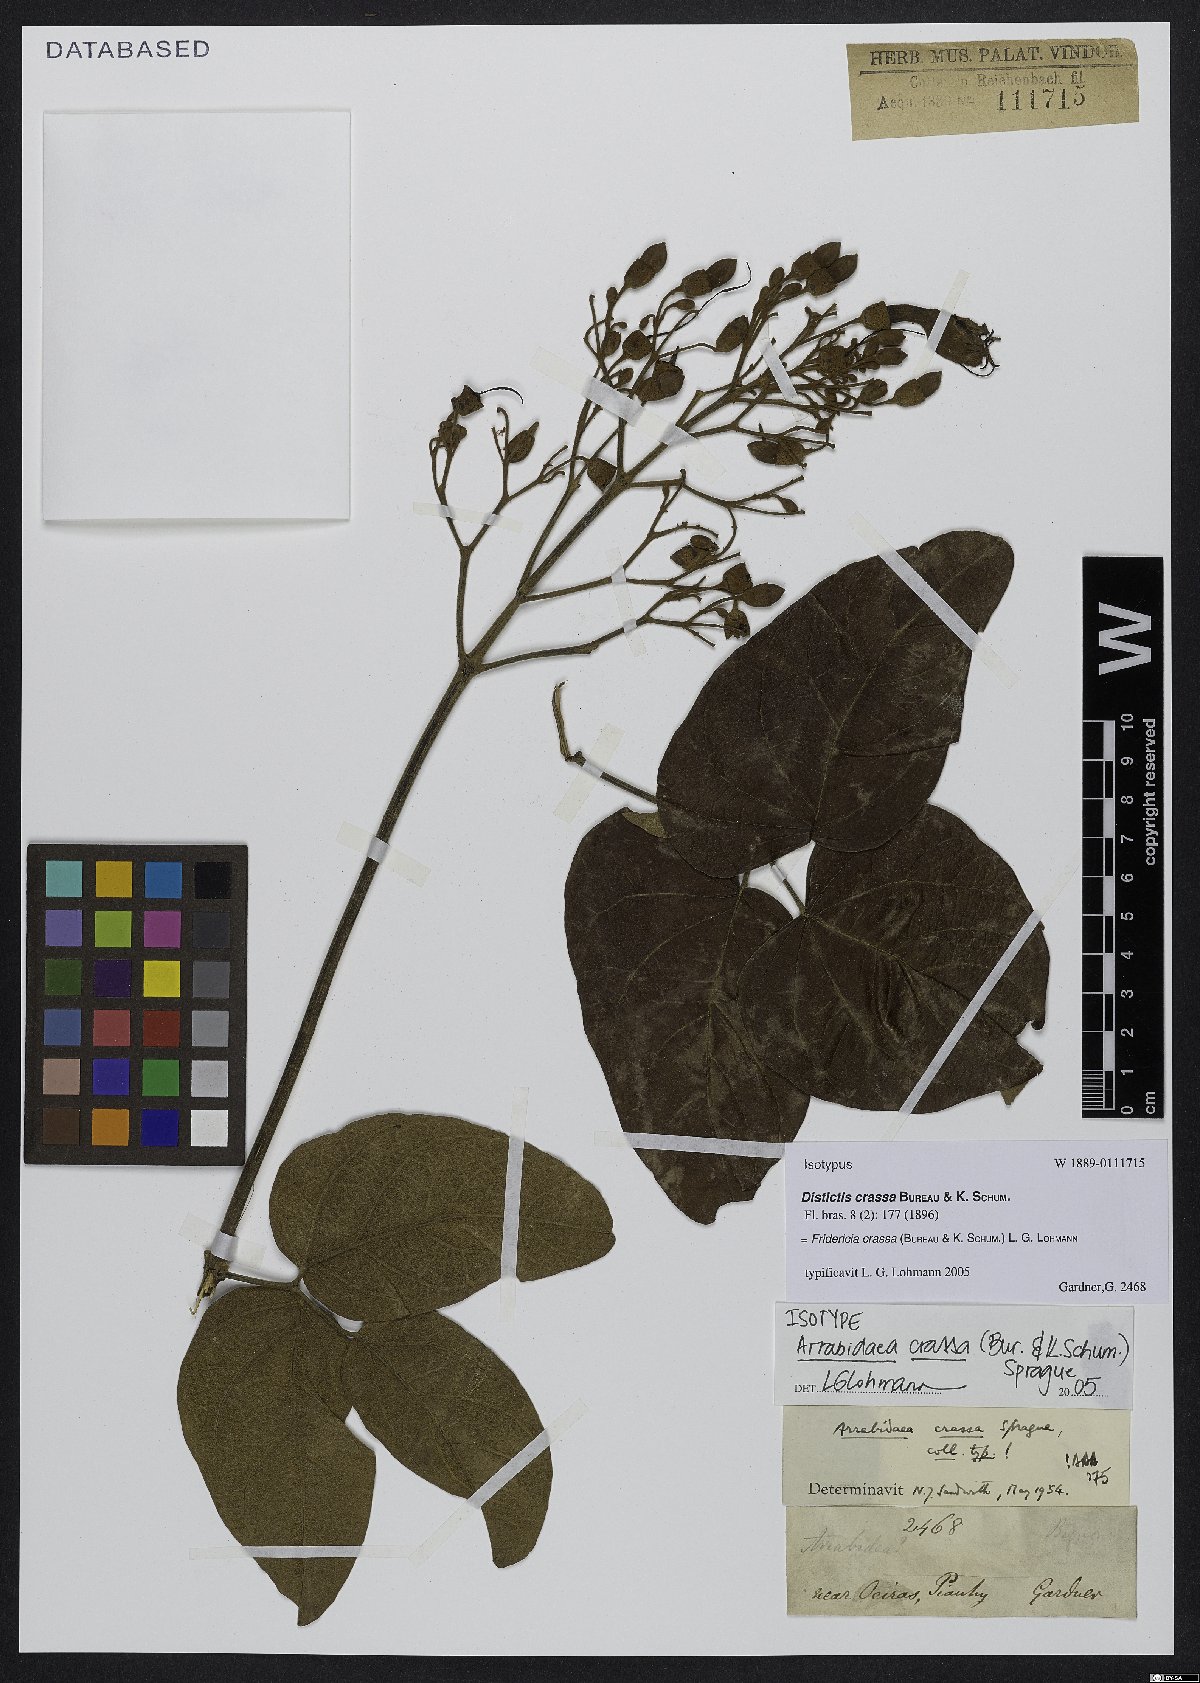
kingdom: Plantae
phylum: Tracheophyta
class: Magnoliopsida
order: Lamiales
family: Bignoniaceae
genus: Fridericia
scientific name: Fridericia crassa
